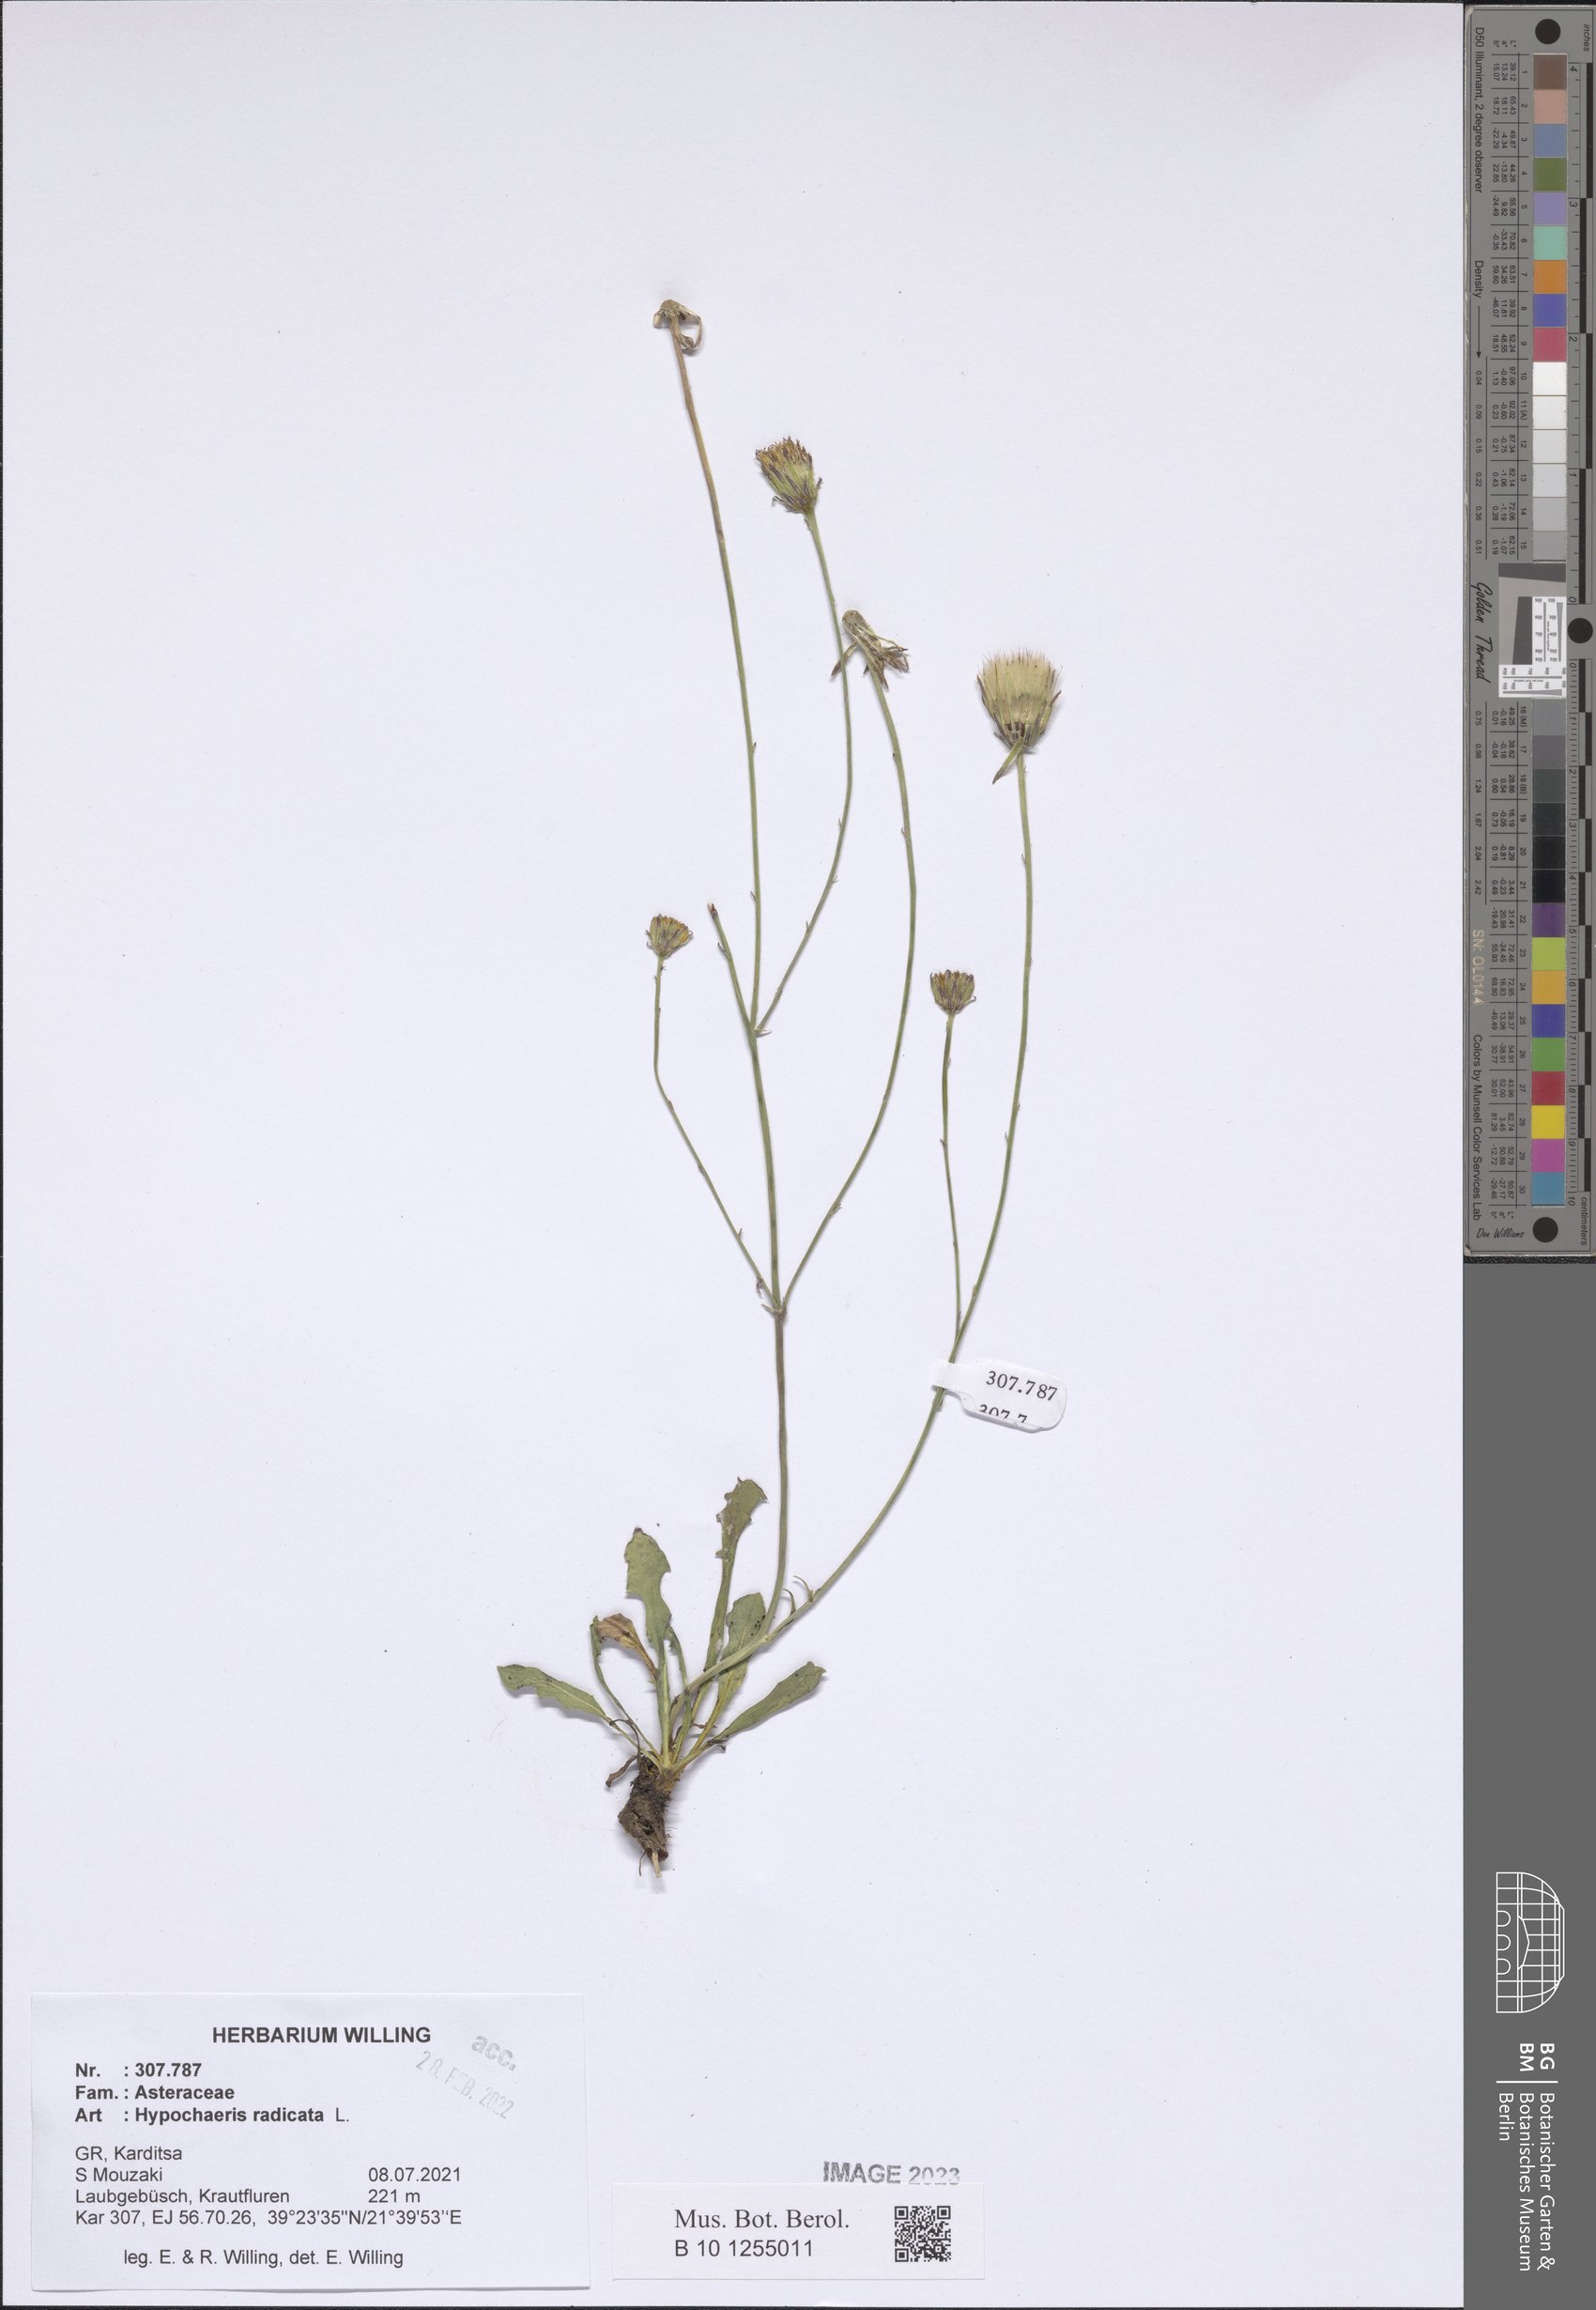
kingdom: Plantae
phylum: Tracheophyta
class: Magnoliopsida
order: Asterales
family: Asteraceae
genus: Hypochaeris
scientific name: Hypochaeris radicata
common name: Flatweed
